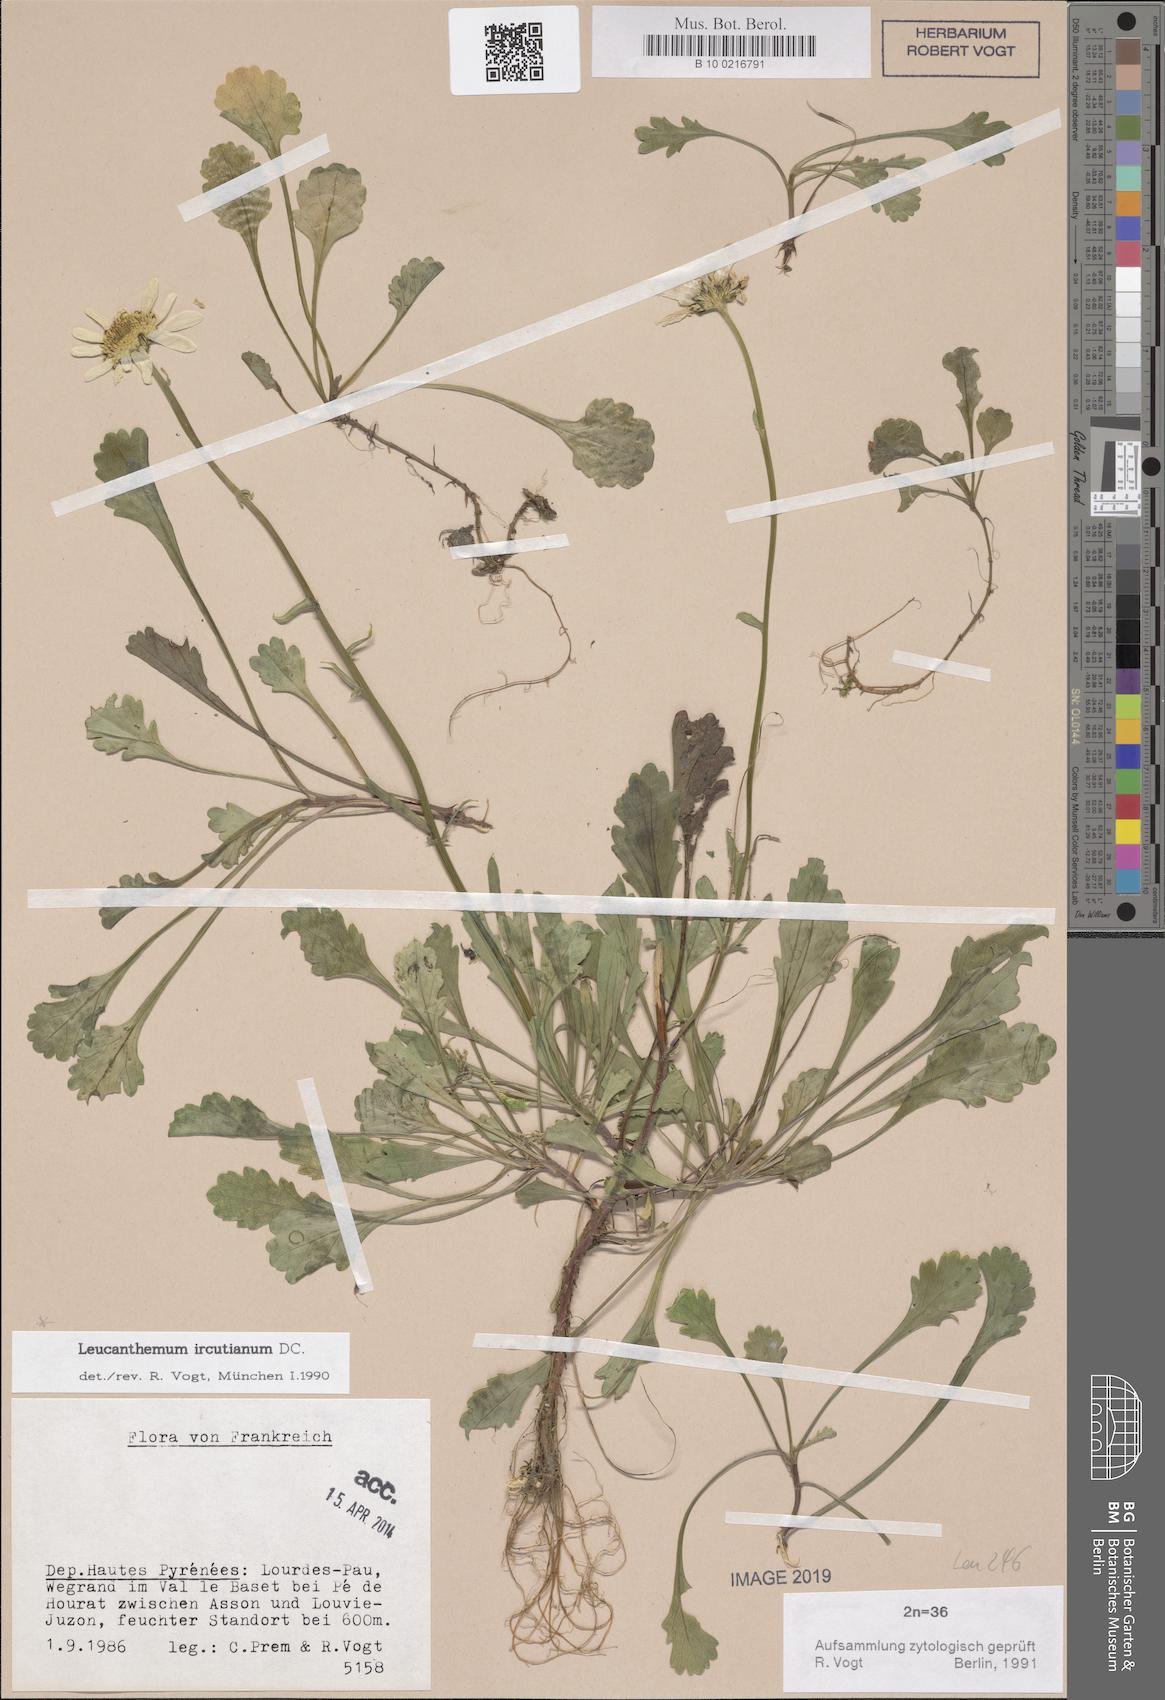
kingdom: Plantae
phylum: Tracheophyta
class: Magnoliopsida
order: Asterales
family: Asteraceae
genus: Leucanthemum
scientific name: Leucanthemum ircutianum
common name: Daisy
